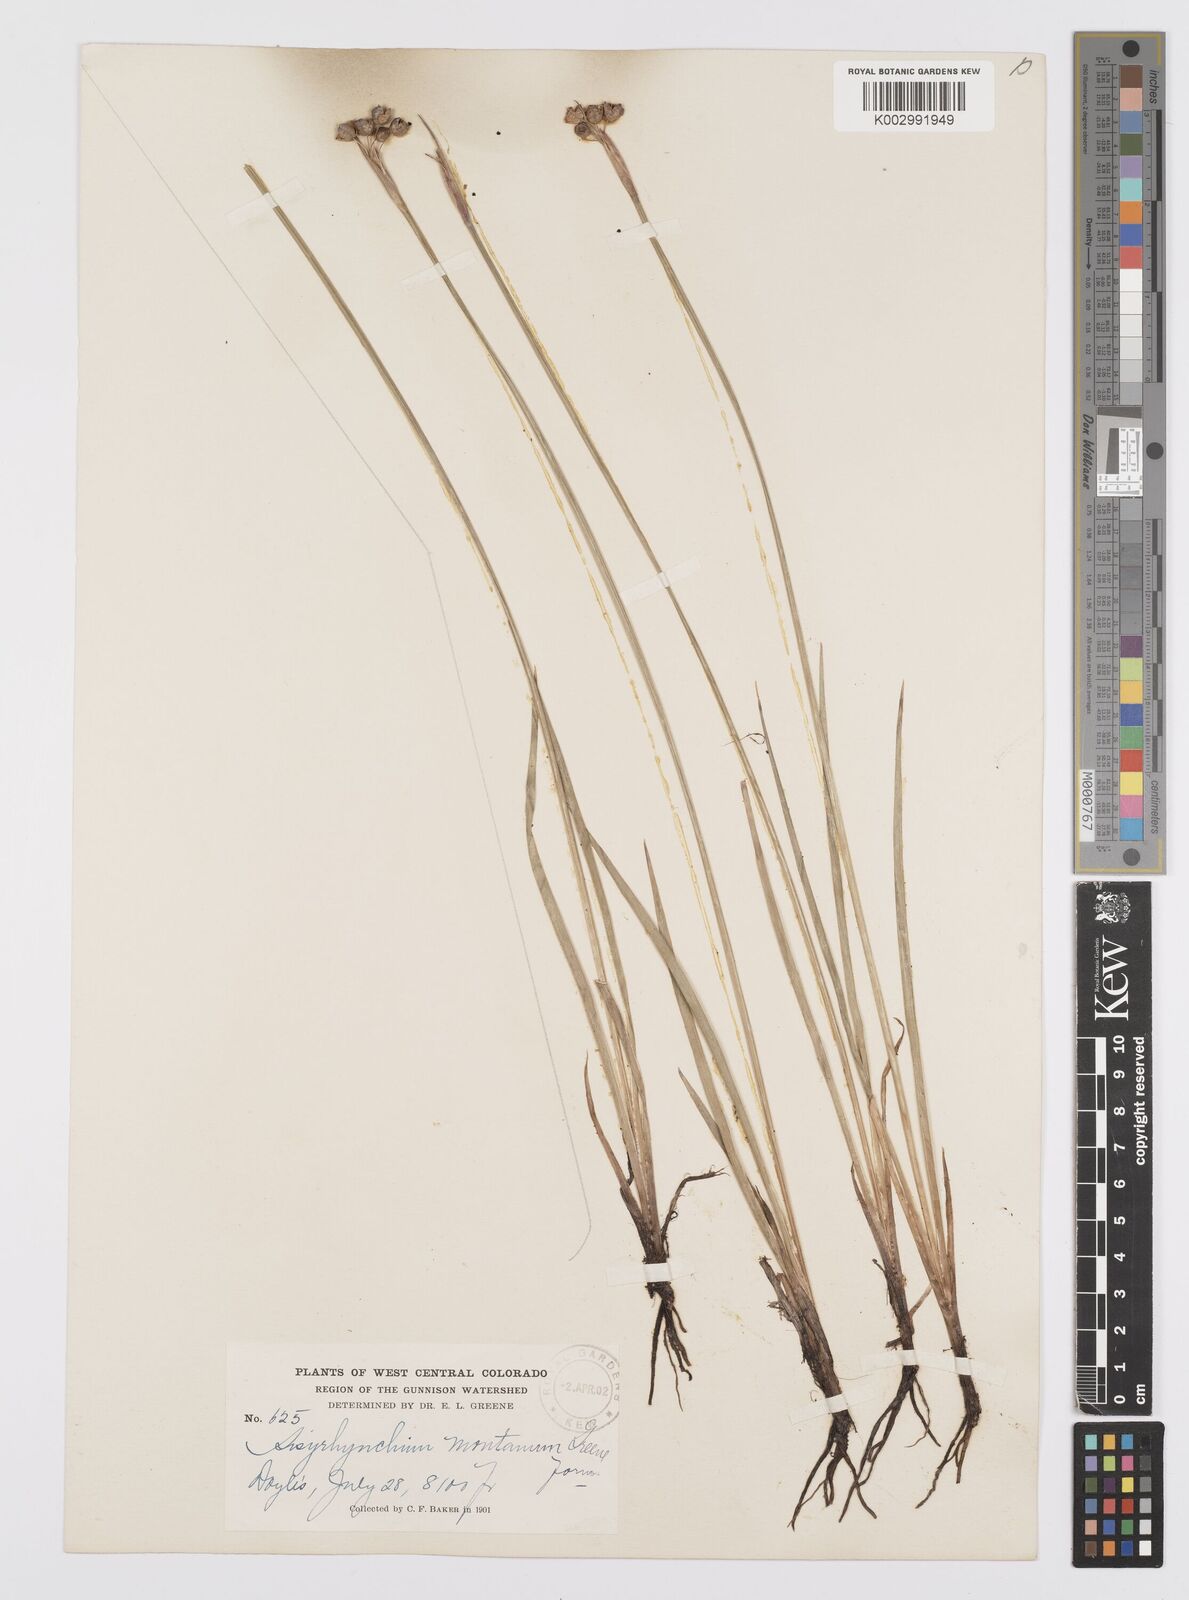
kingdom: Plantae
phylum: Tracheophyta
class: Liliopsida
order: Asparagales
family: Iridaceae
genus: Sisyrinchium
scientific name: Sisyrinchium montanum
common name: American blue-eyed-grass
